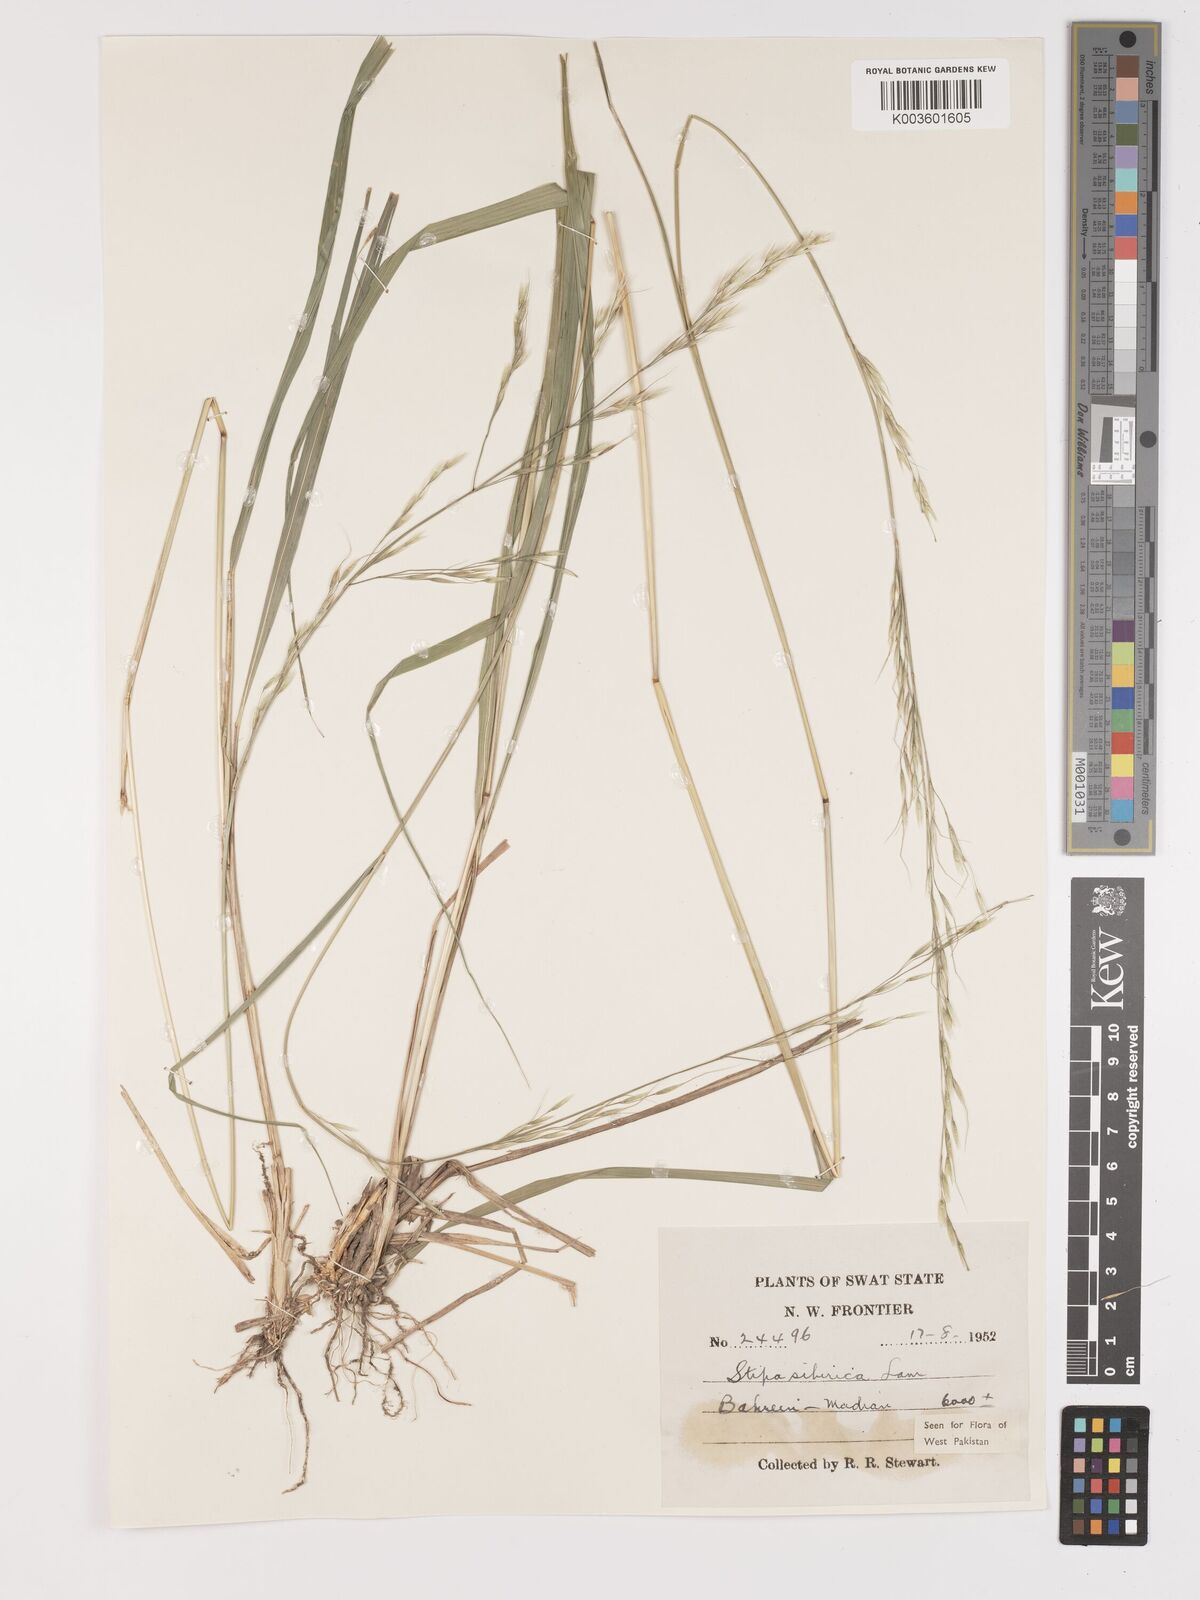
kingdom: Plantae
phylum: Tracheophyta
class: Liliopsida
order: Poales
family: Poaceae
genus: Achnatherum
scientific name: Achnatherum brandisii
